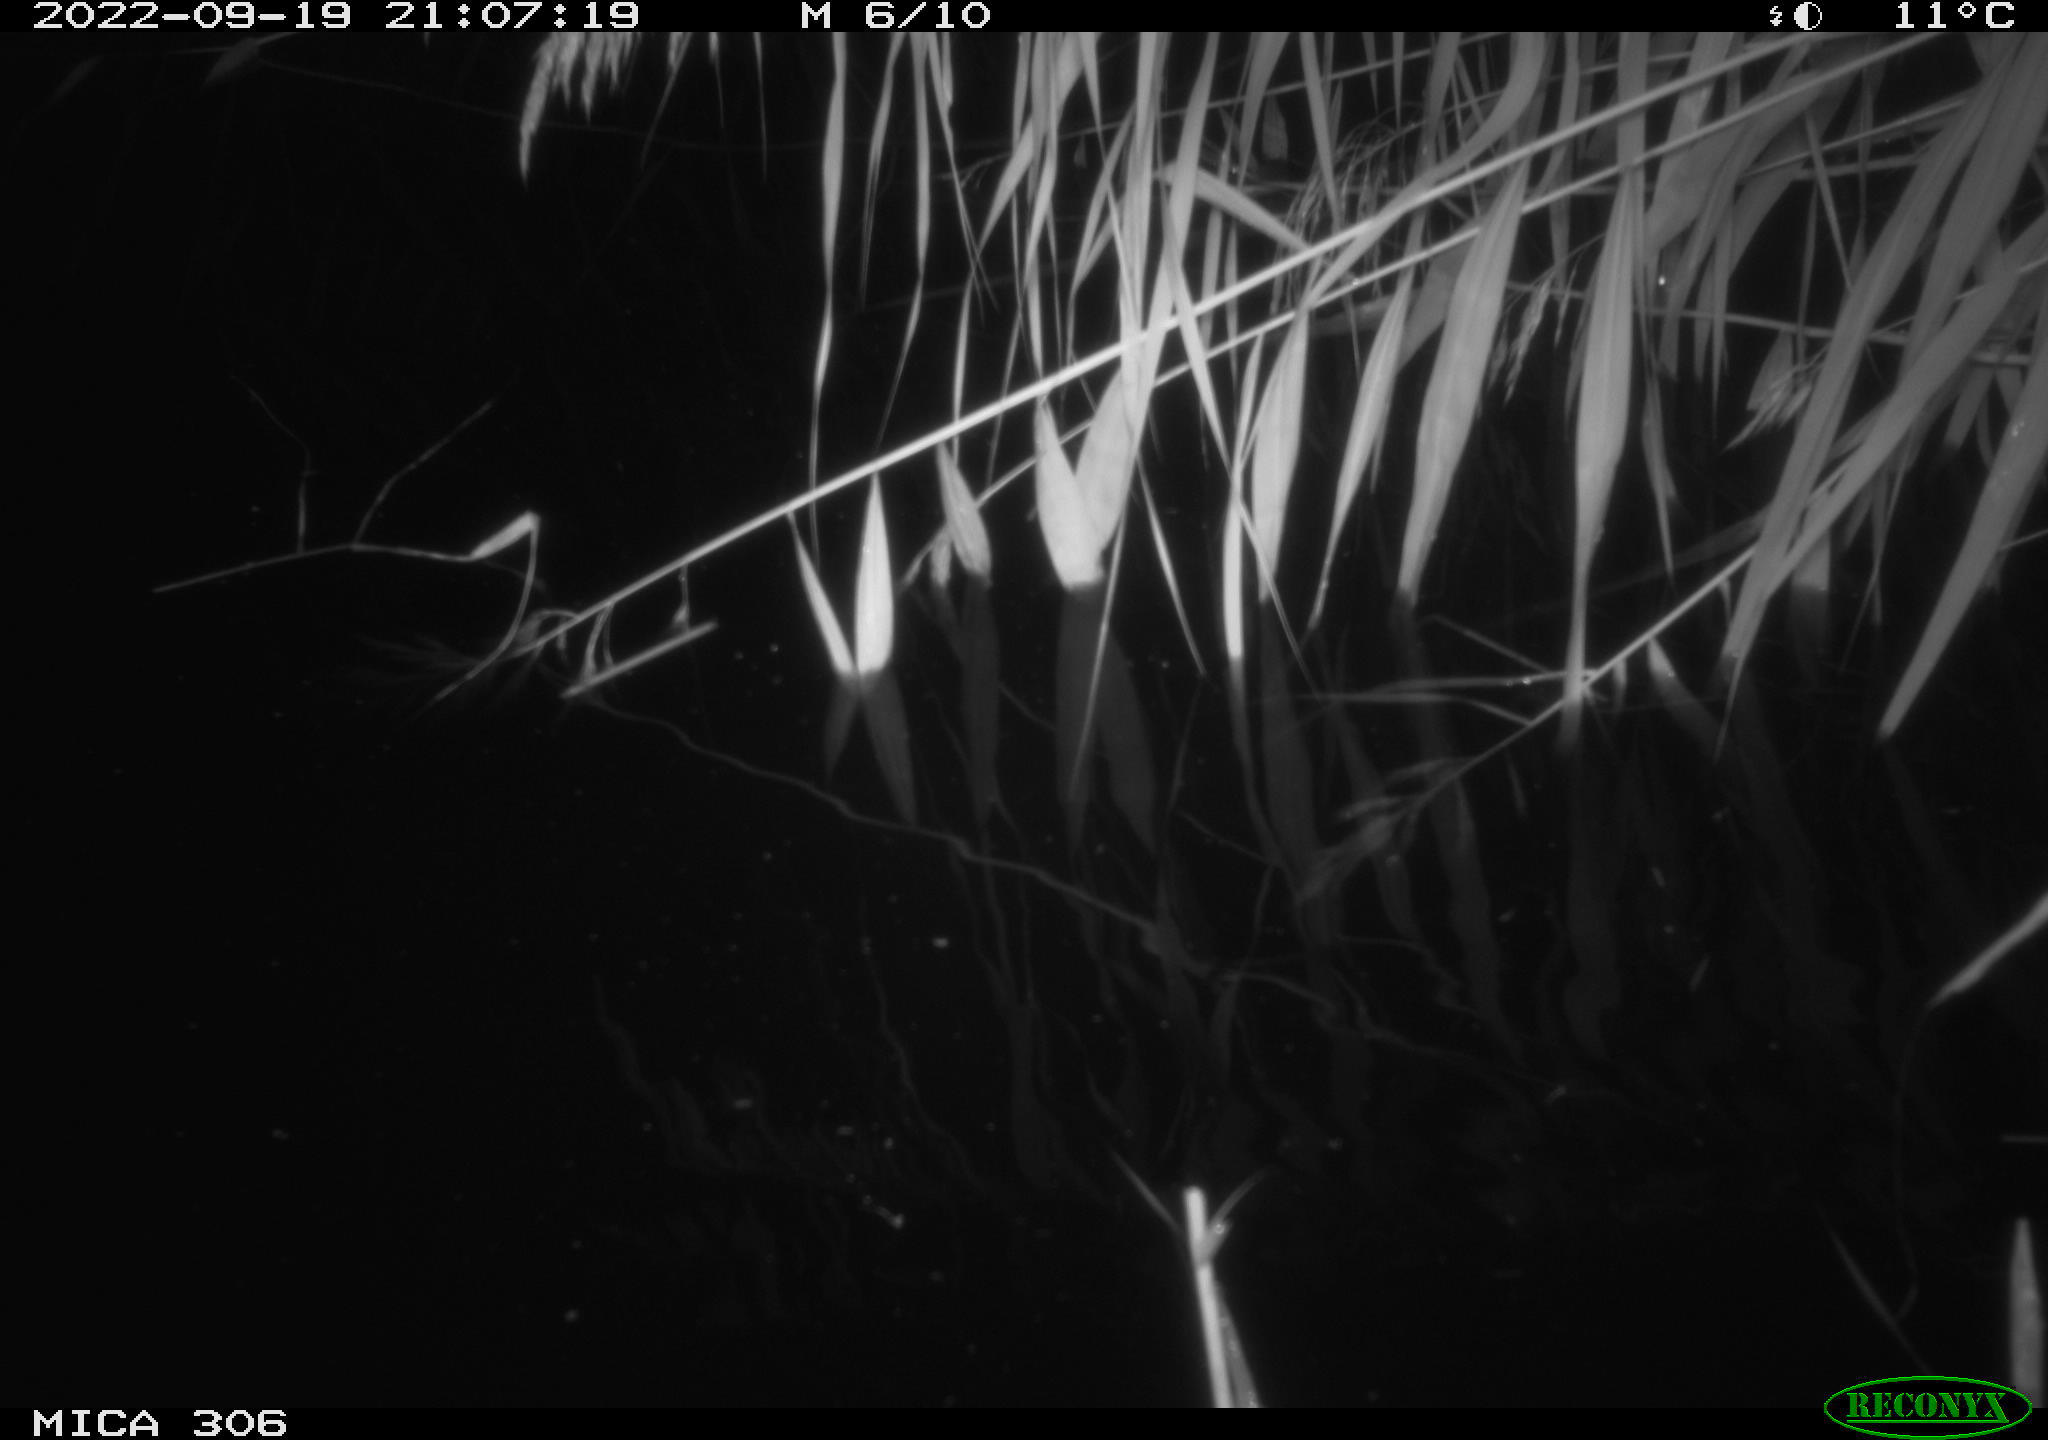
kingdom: Animalia
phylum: Chordata
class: Mammalia
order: Rodentia
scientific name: Rodentia
